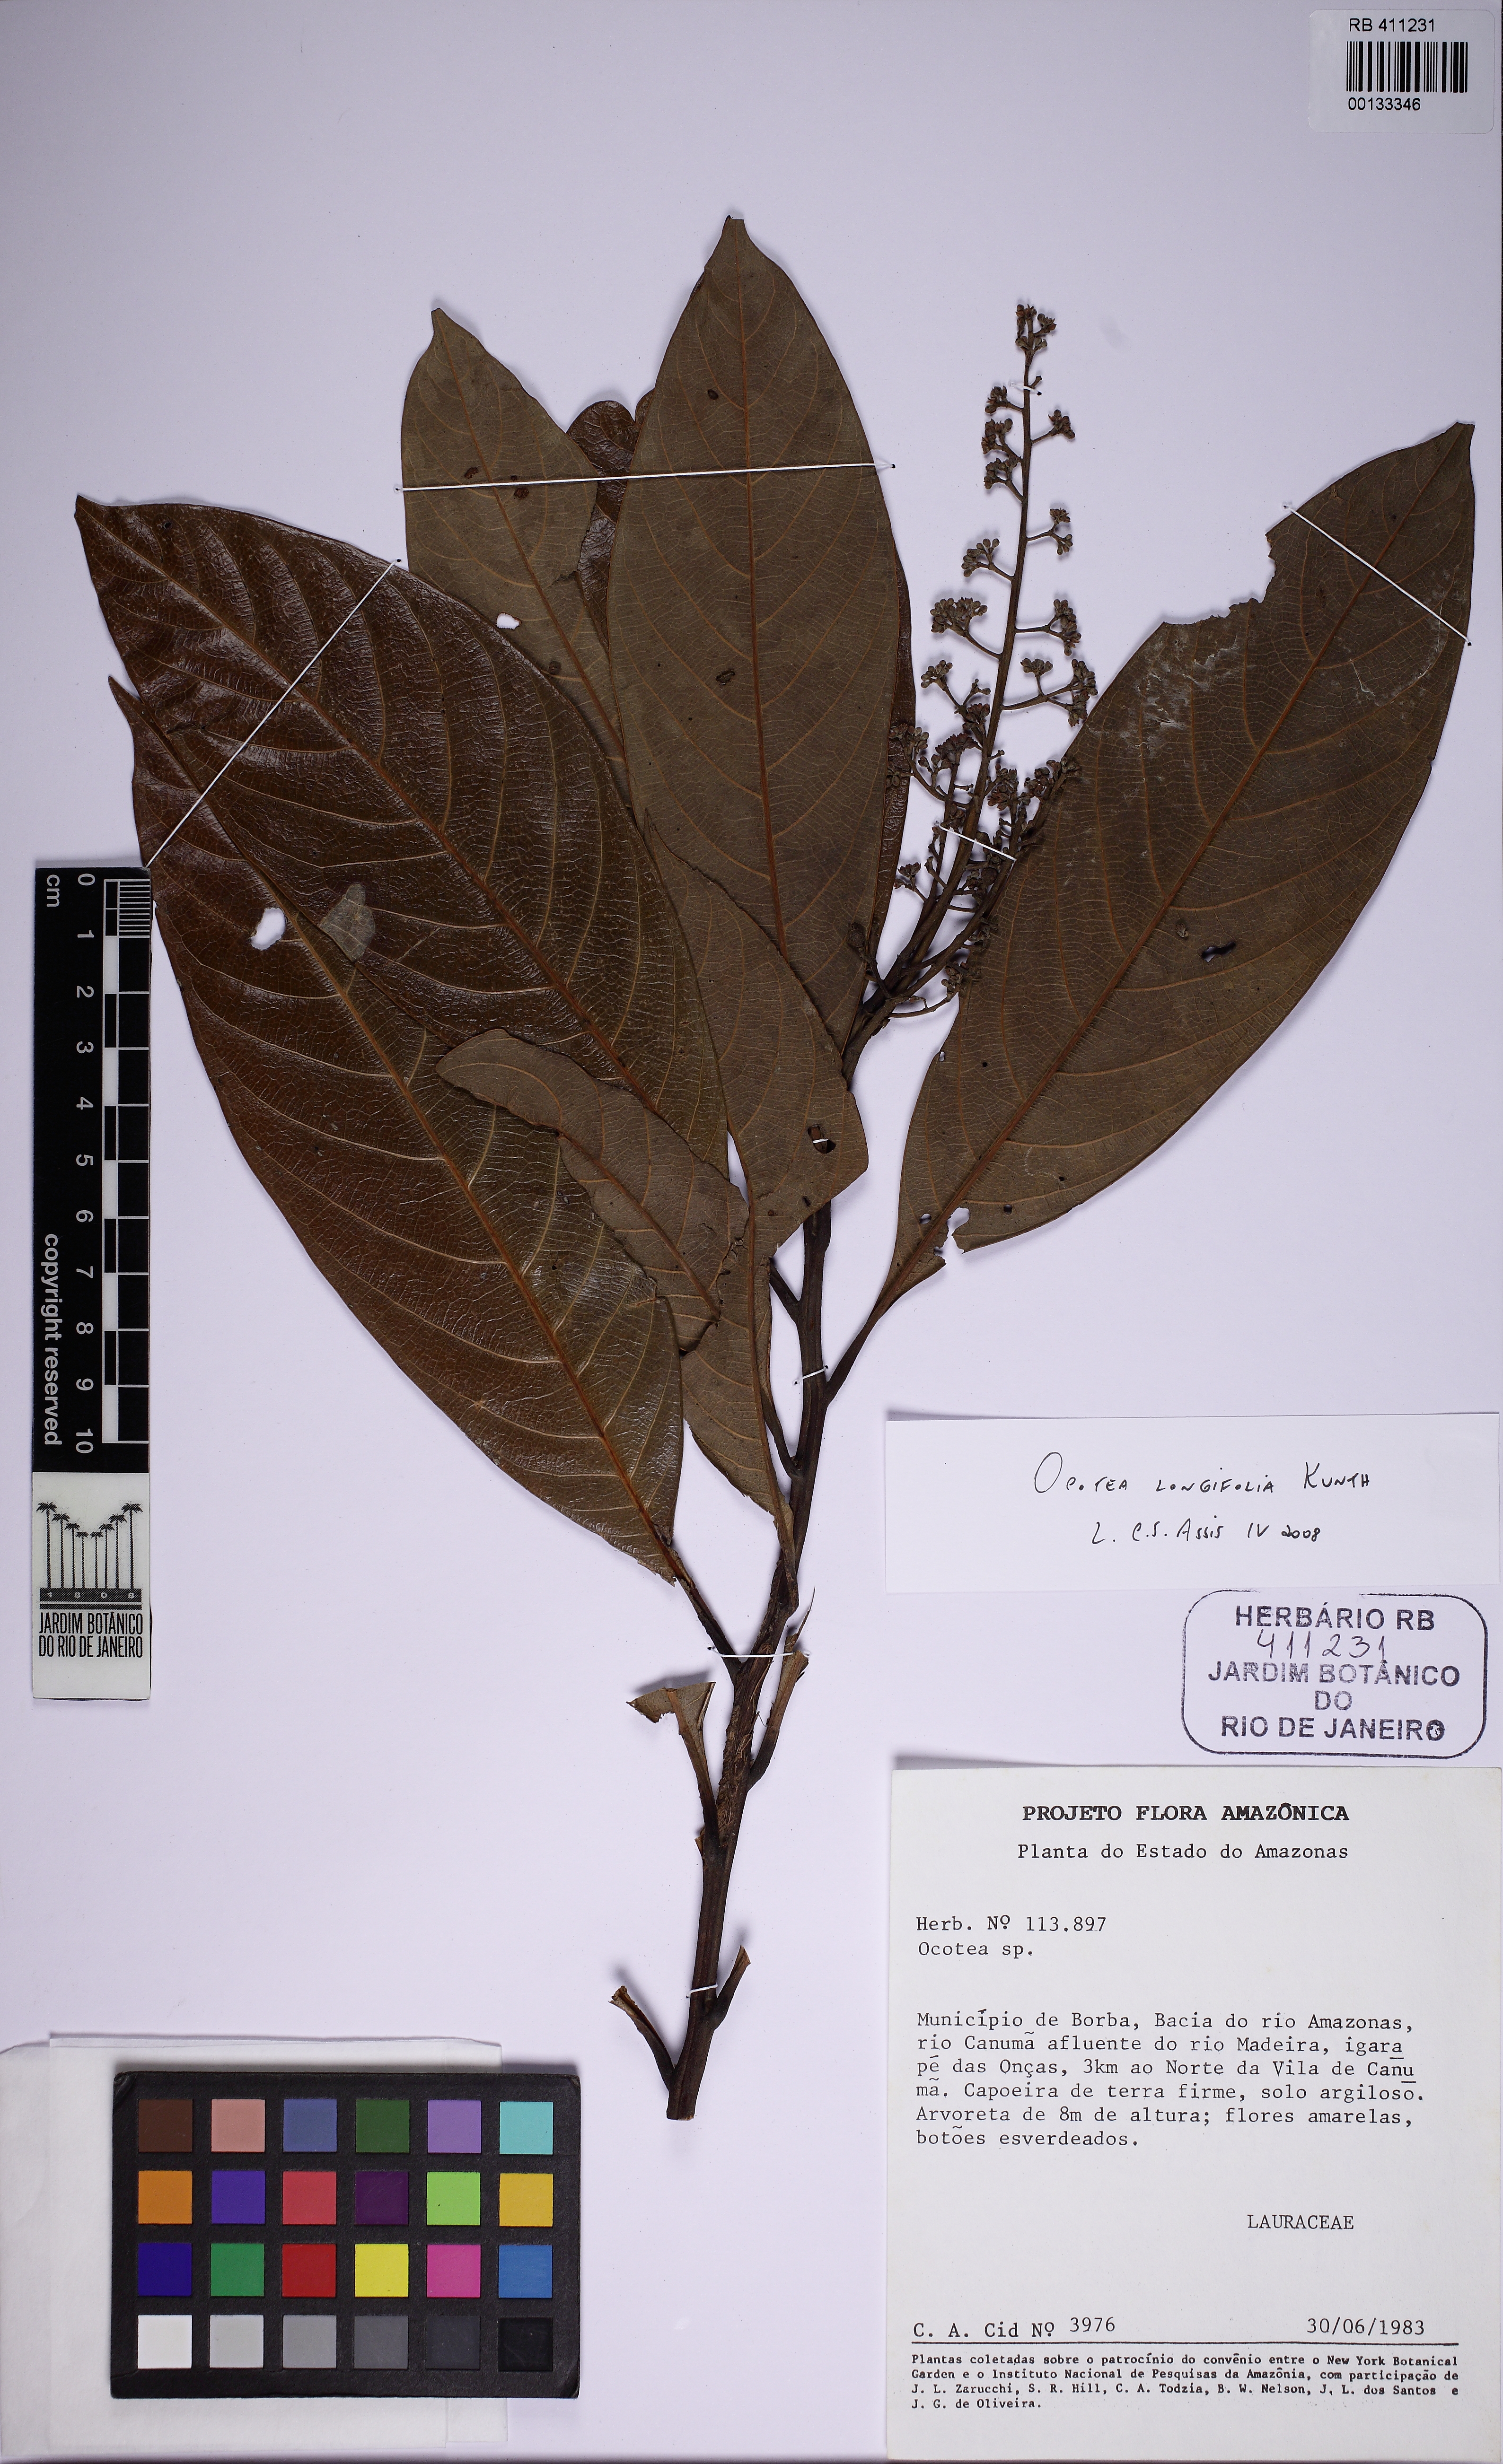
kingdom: Plantae
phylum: Tracheophyta
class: Magnoliopsida
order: Laurales
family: Lauraceae
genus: Mespilodaphne
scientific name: Mespilodaphne opifera
